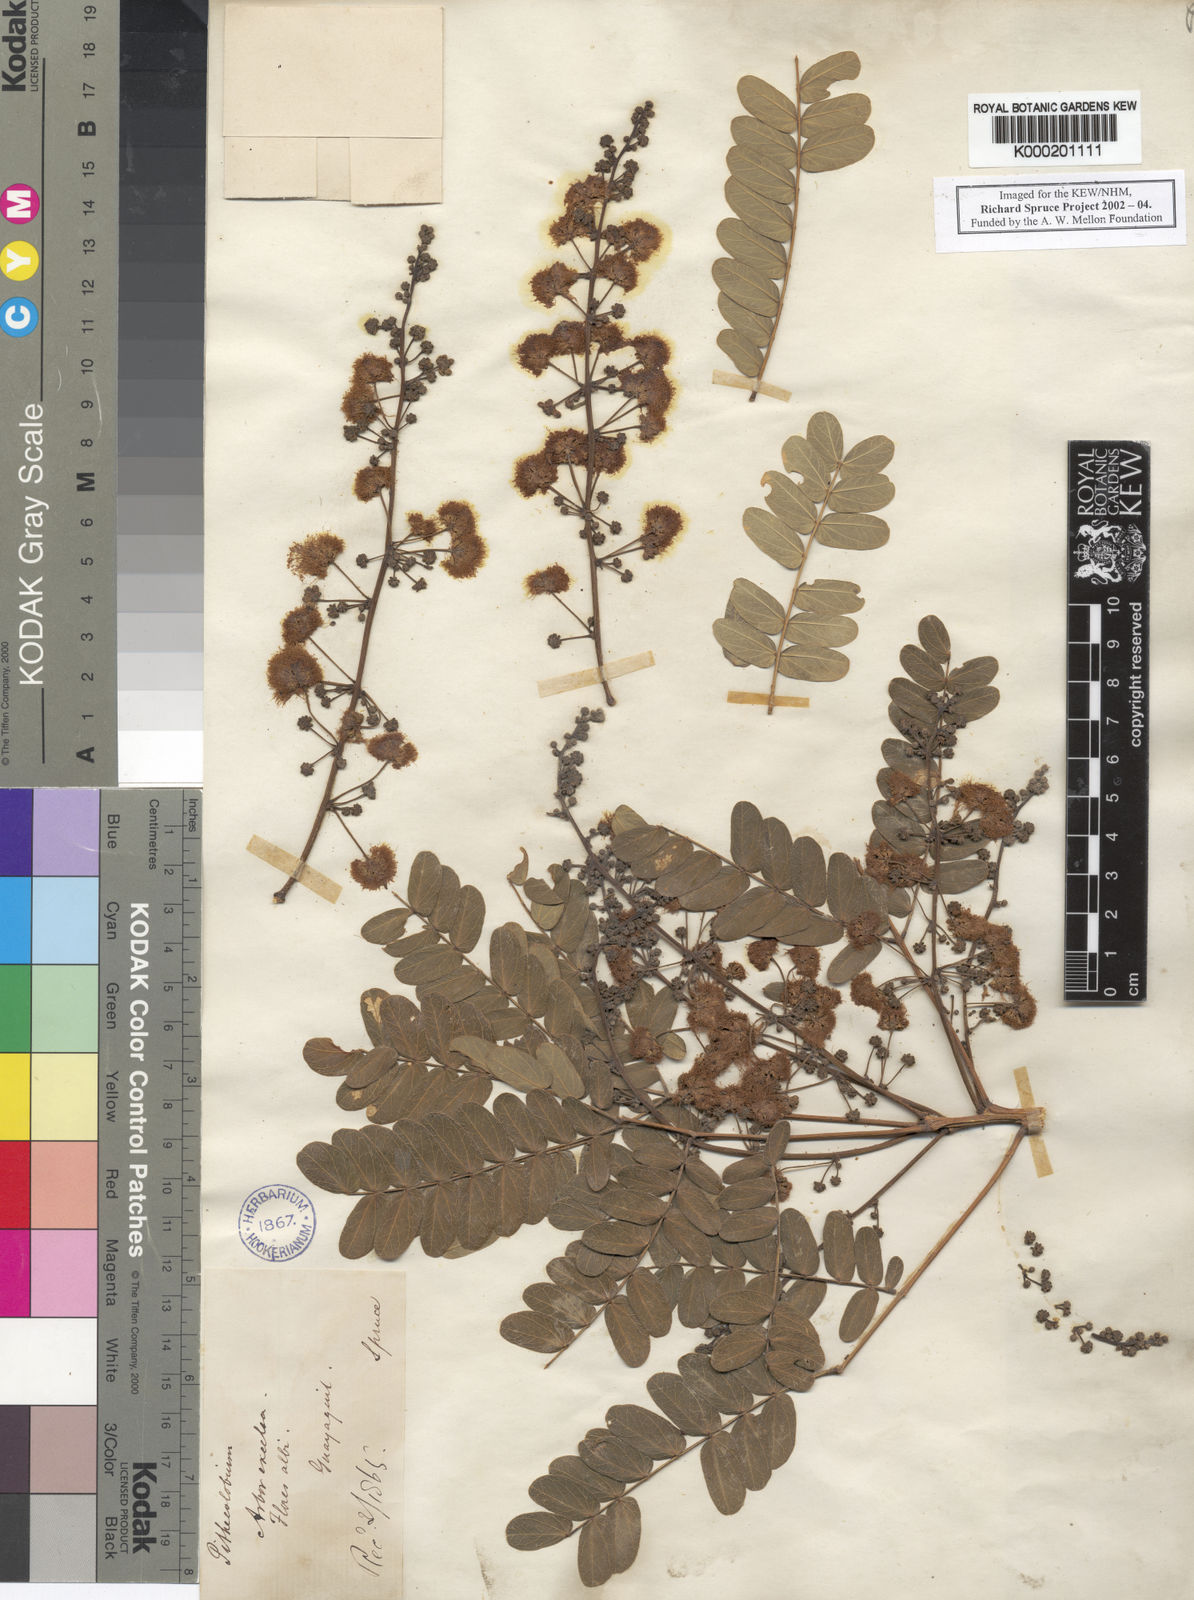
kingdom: Plantae
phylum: Tracheophyta
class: Magnoliopsida
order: Fabales
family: Fabaceae
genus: Albizia
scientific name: Albizia multiflora
